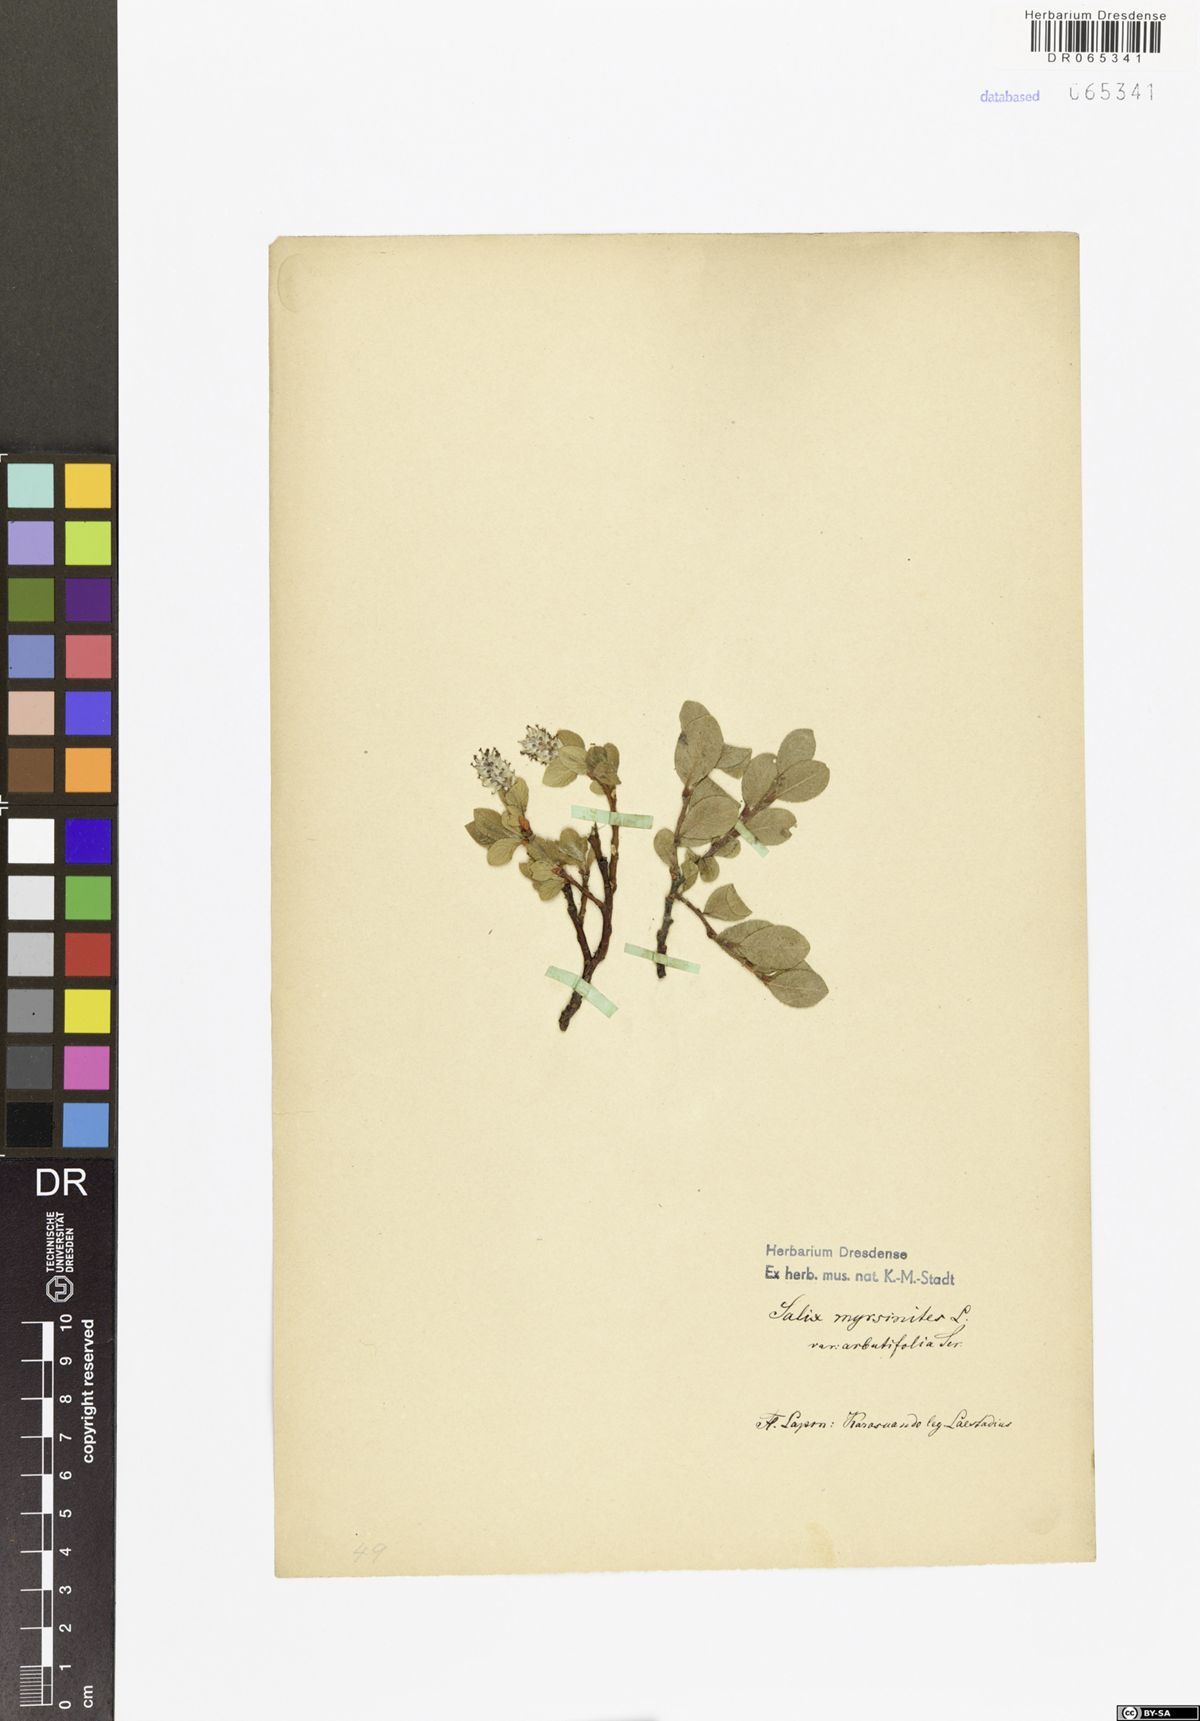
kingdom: Plantae
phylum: Tracheophyta
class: Magnoliopsida
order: Malpighiales
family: Salicaceae
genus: Salix
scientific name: Salix myrsinites
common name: Myrtle willow
